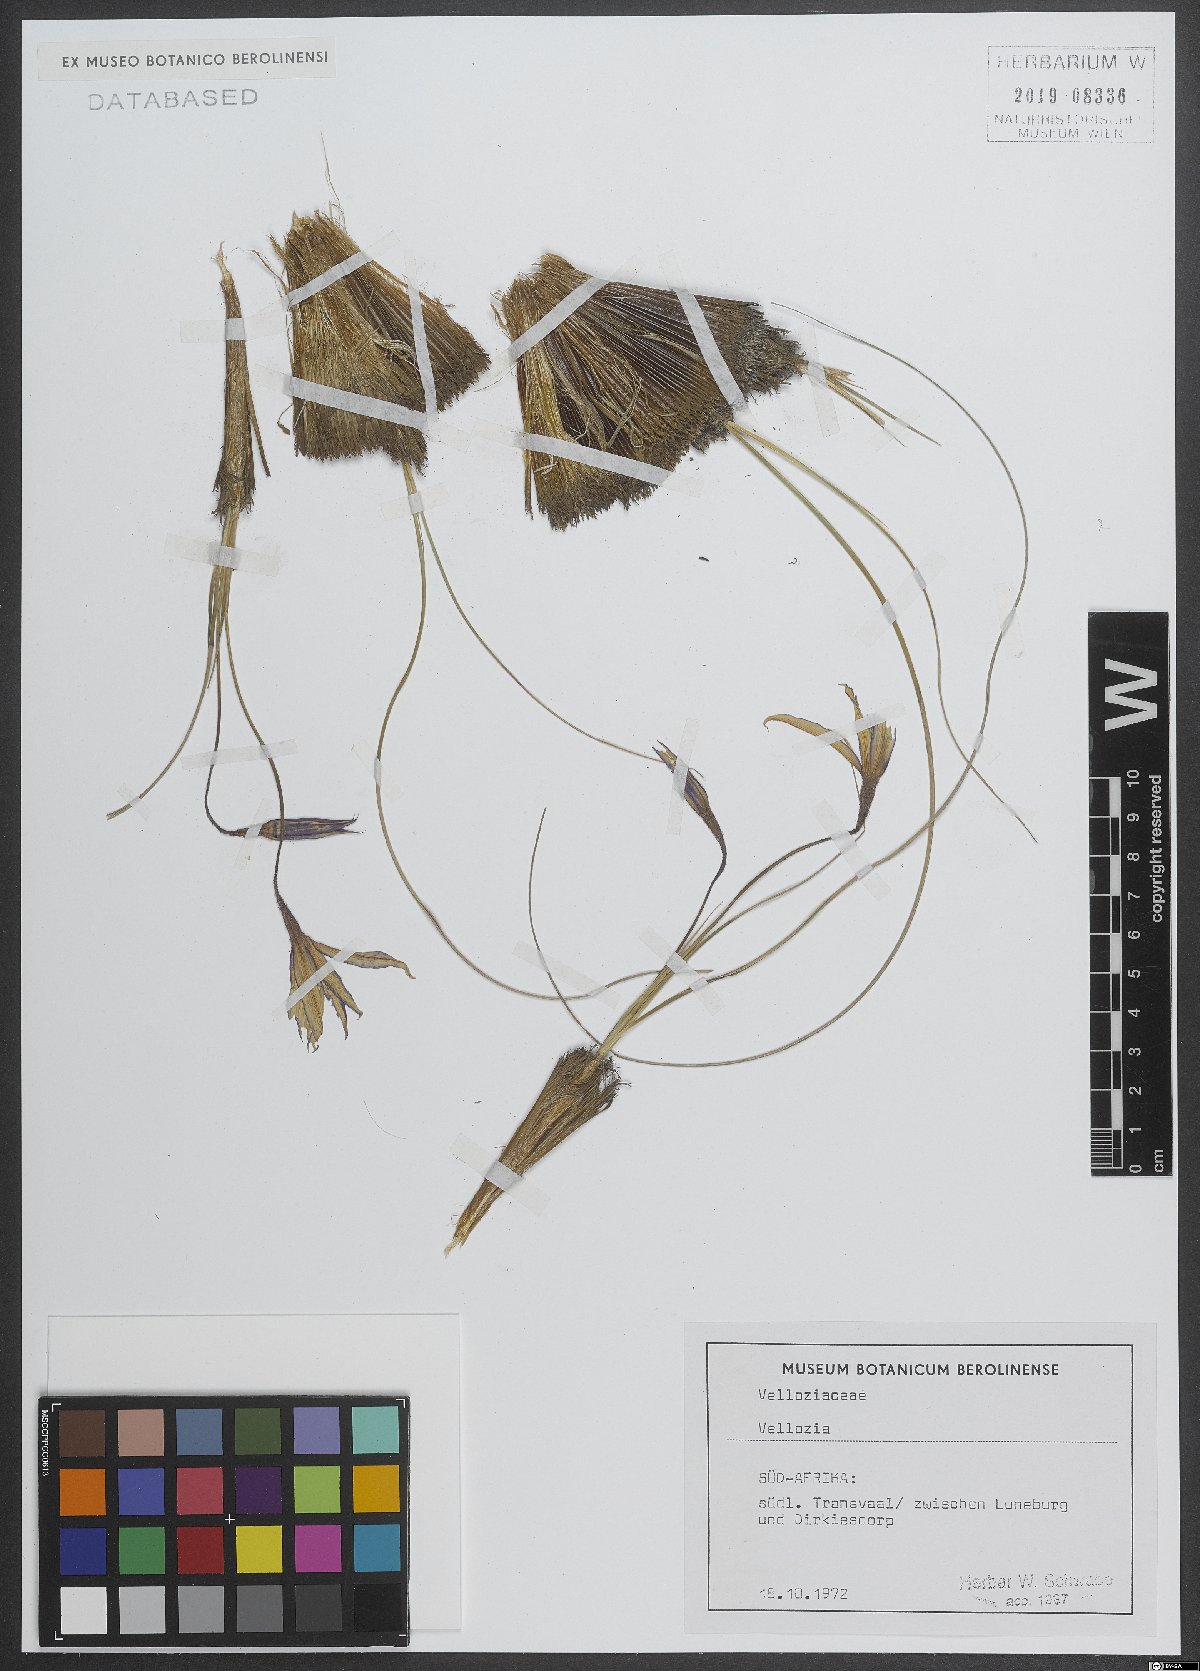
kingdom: Plantae
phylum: Tracheophyta
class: Liliopsida
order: Pandanales
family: Velloziaceae
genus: Vellozia
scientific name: Vellozia
